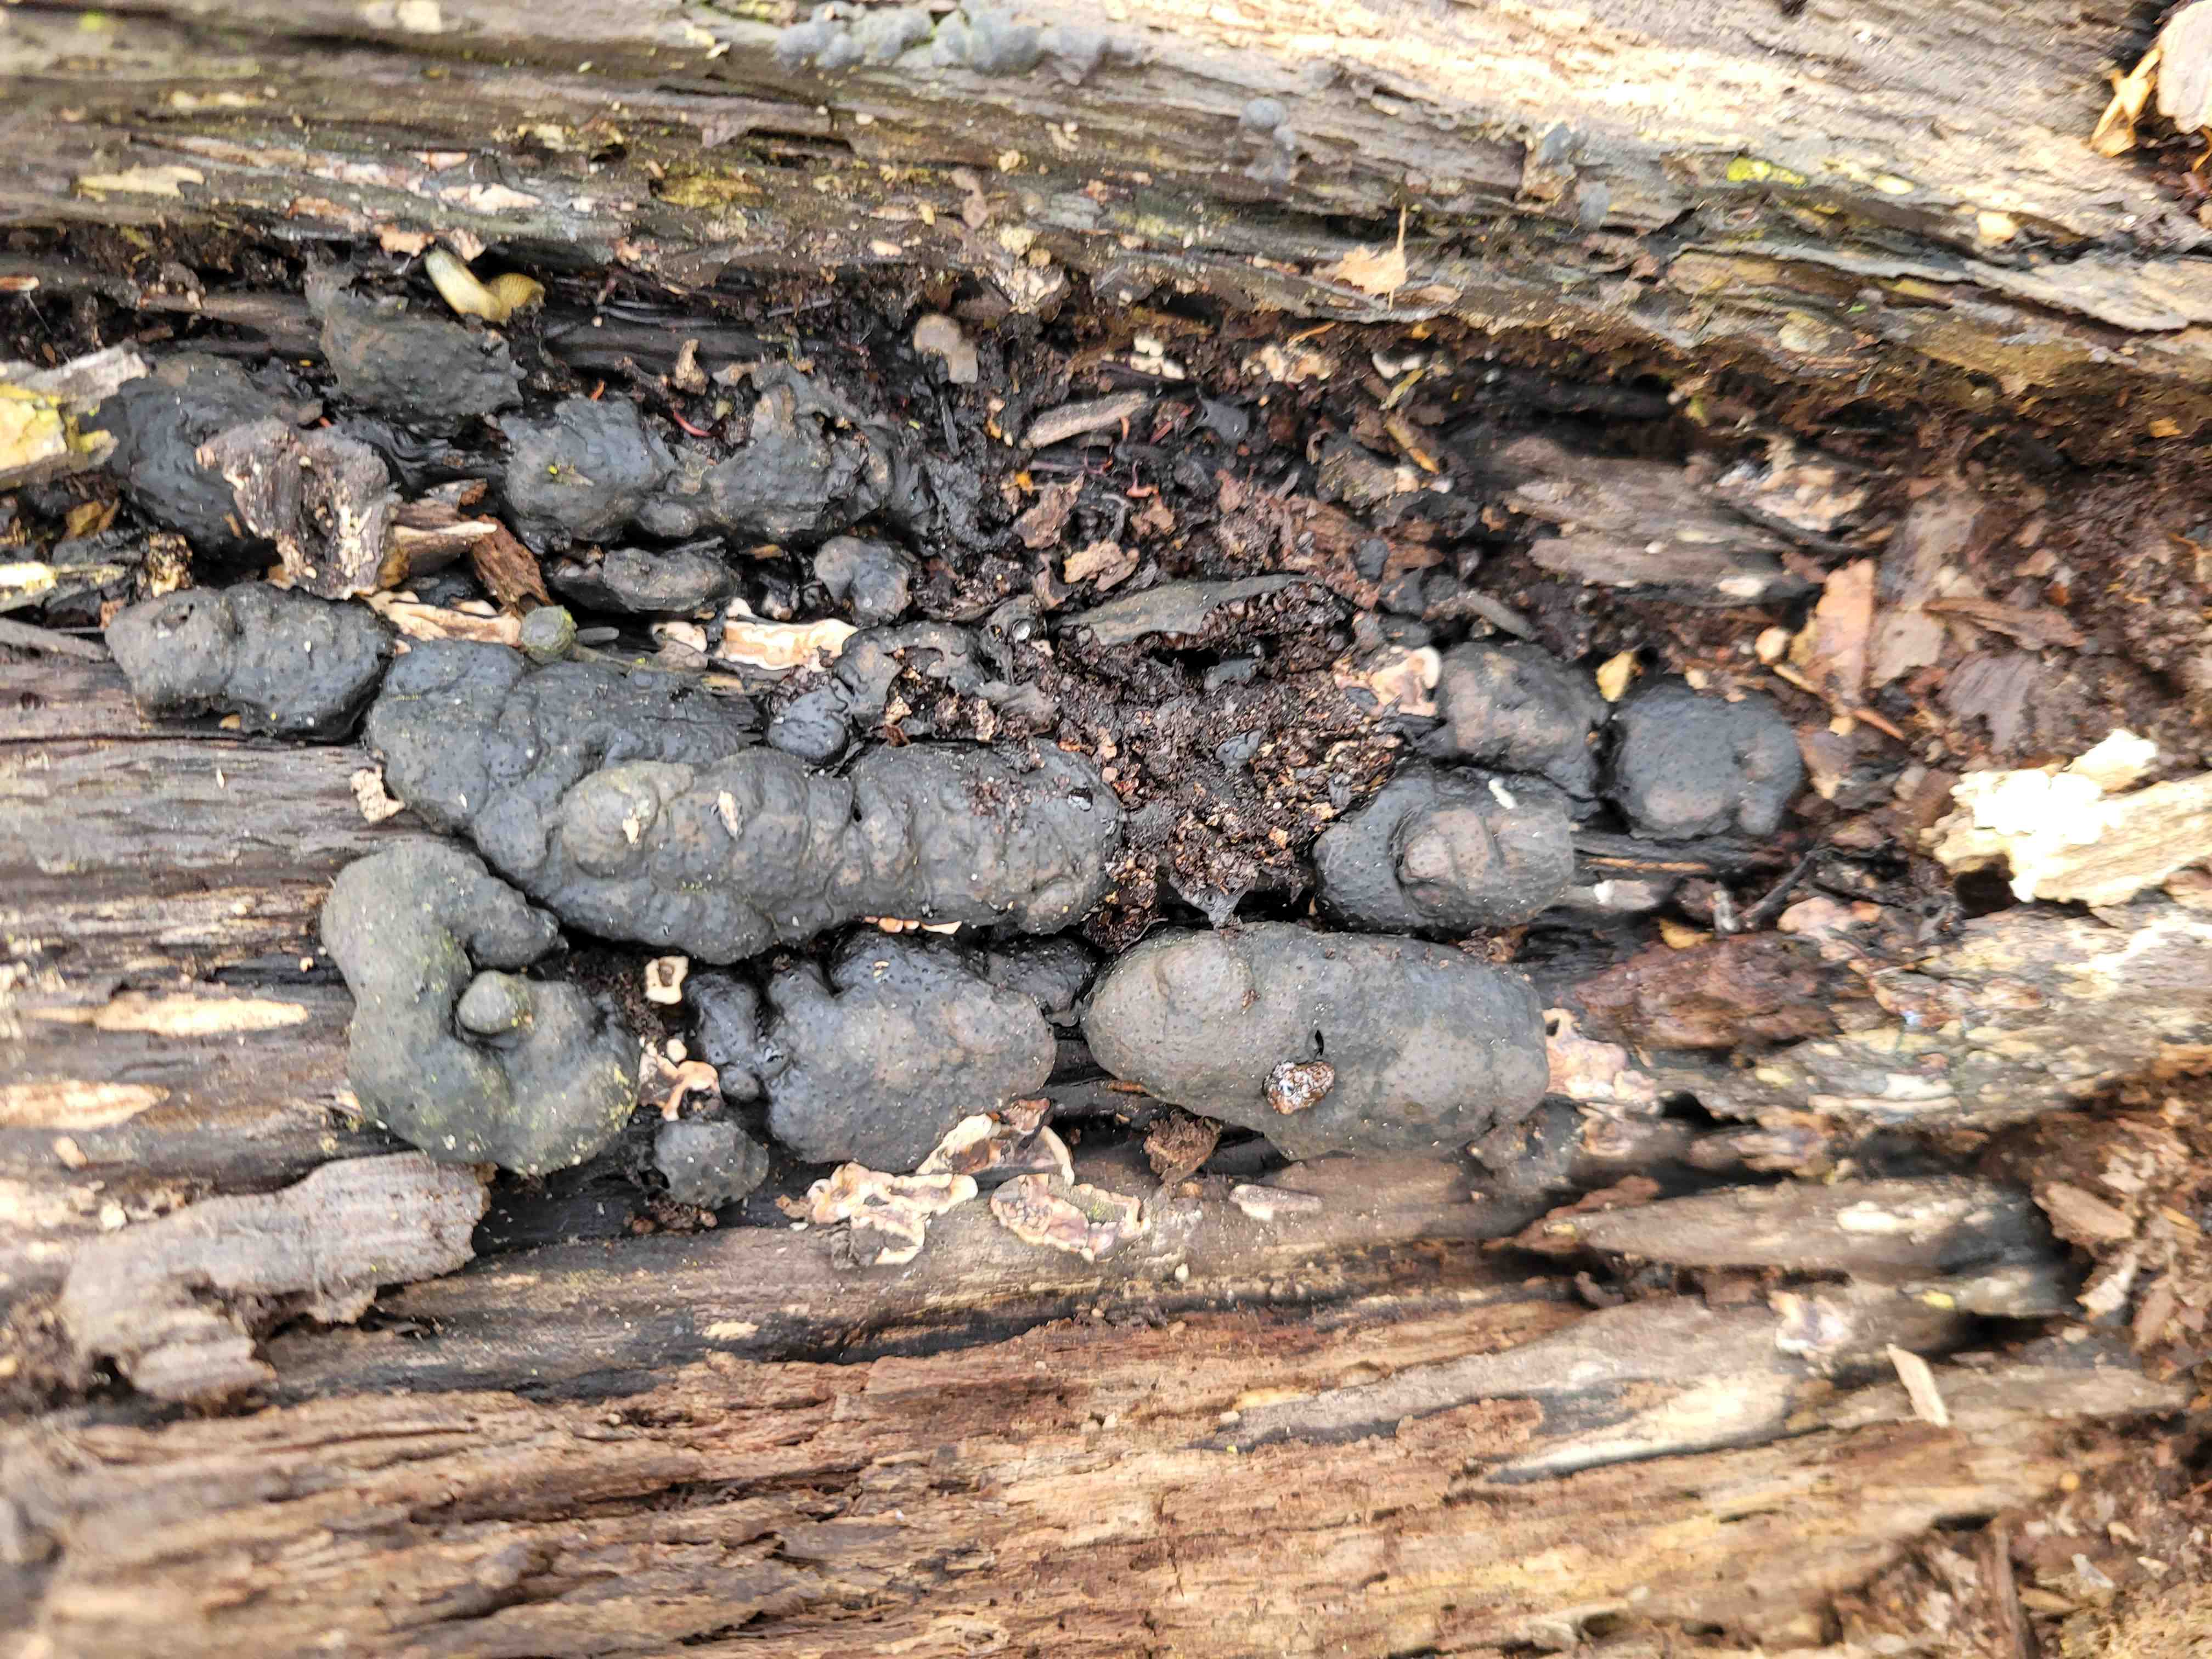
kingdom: Fungi
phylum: Ascomycota
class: Sordariomycetes
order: Xylariales
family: Xylariaceae
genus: Kretzschmaria
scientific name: Kretzschmaria deusta
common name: stor kulsvamp
